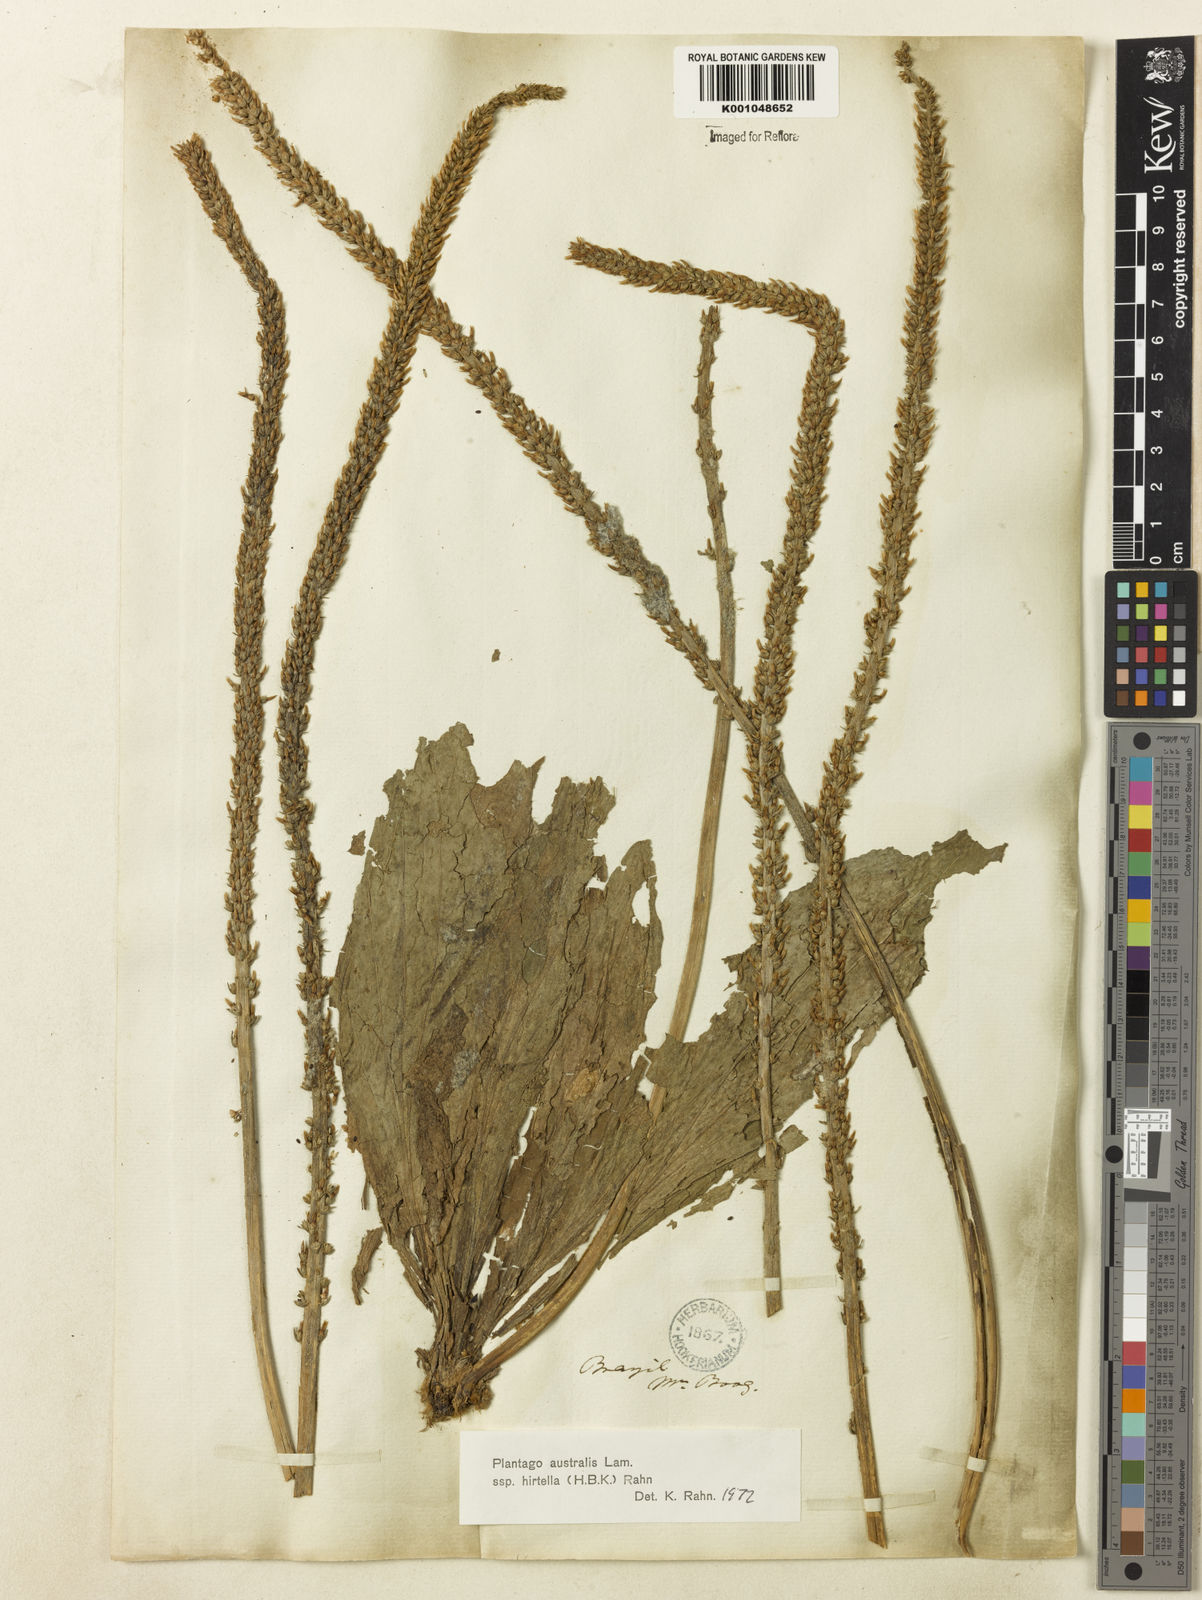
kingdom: Plantae
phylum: Tracheophyta
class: Magnoliopsida
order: Lamiales
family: Plantaginaceae
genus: Plantago
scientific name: Plantago australis
